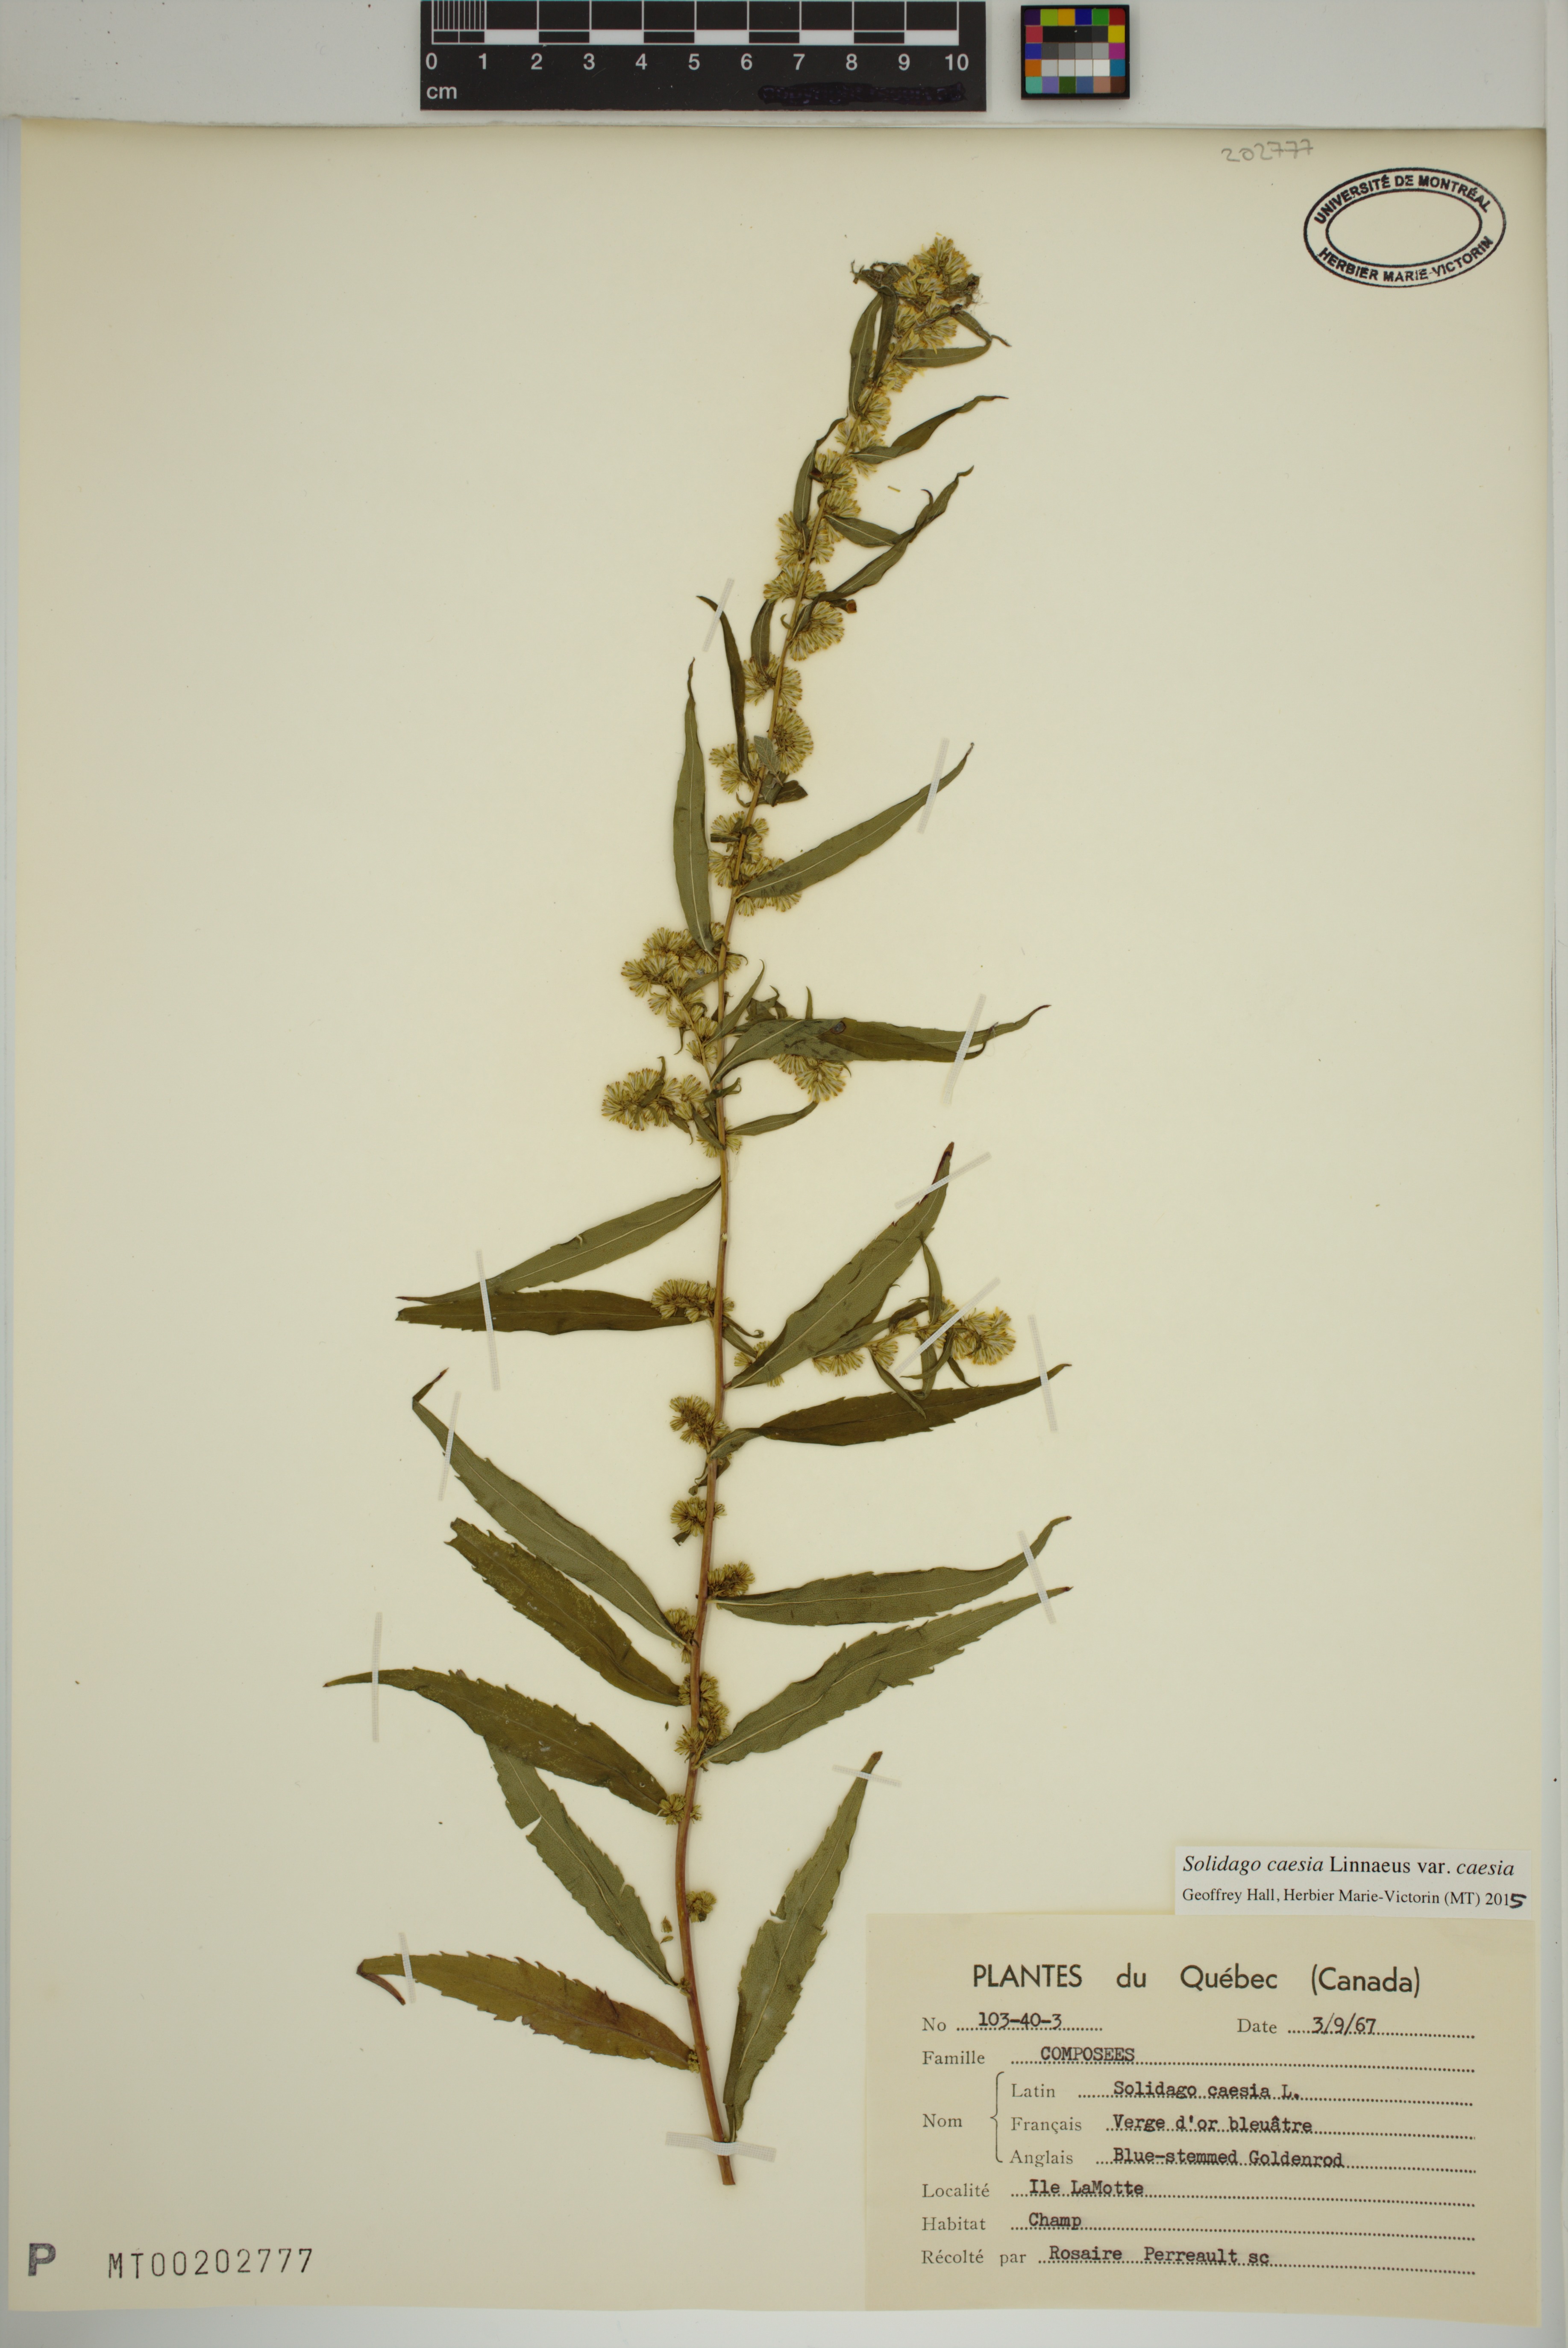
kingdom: Plantae
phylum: Tracheophyta
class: Magnoliopsida
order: Asterales
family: Asteraceae
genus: Solidago
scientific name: Solidago caesia
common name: Woodland goldenrod
